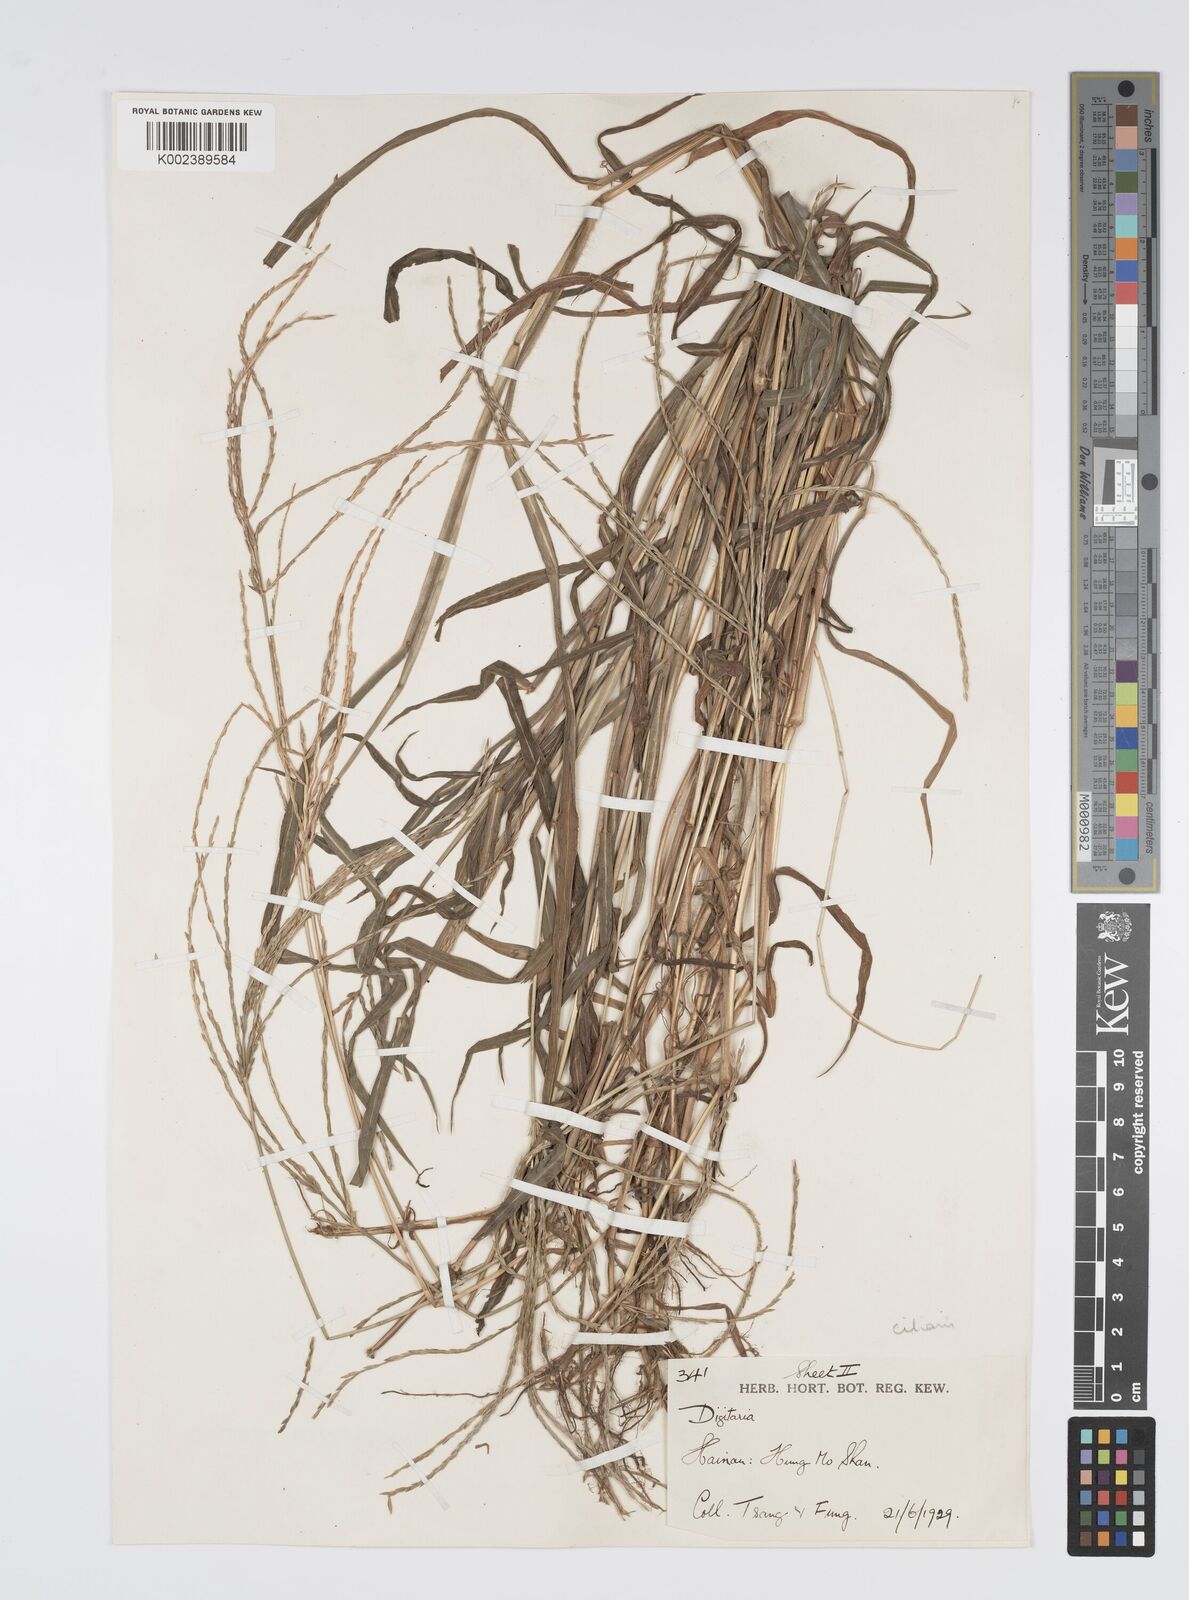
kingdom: Plantae
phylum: Tracheophyta
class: Liliopsida
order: Poales
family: Poaceae
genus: Digitaria
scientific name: Digitaria ciliaris
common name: Tropical finger-grass
